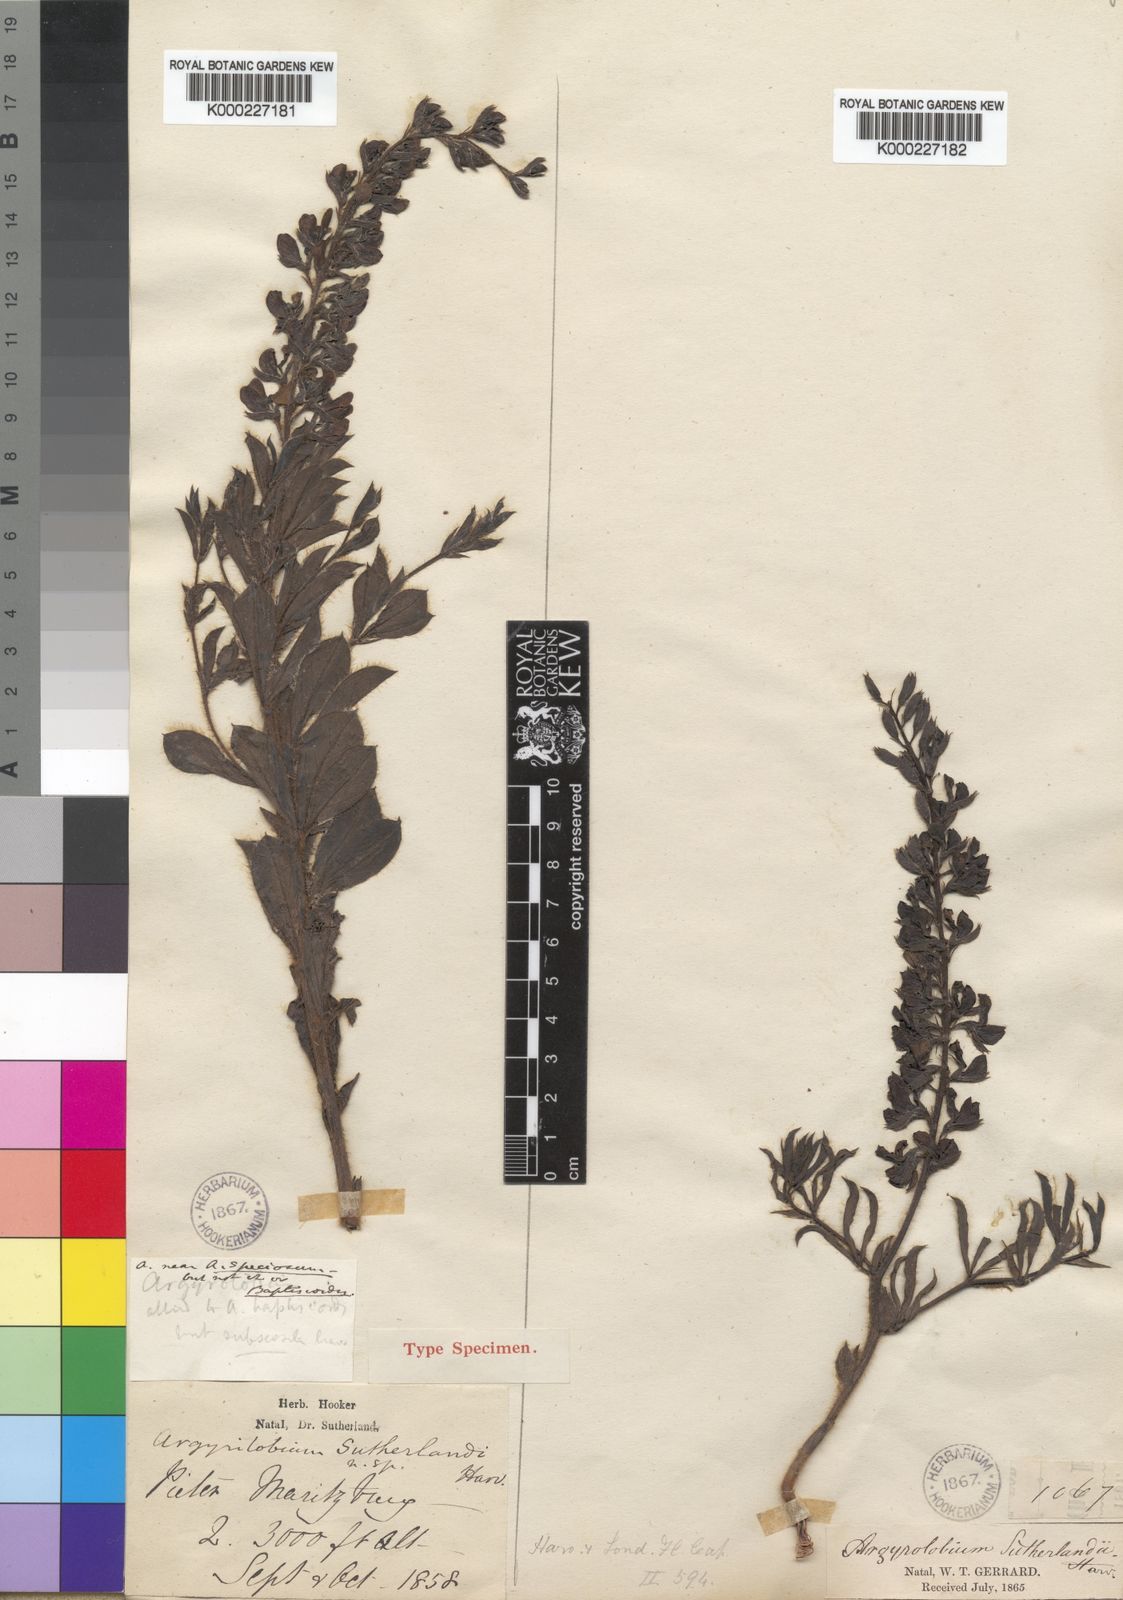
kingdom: Plantae
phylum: Tracheophyta
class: Magnoliopsida
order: Fabales
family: Fabaceae
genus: Argyrolobium
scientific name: Argyrolobium baptisioides
